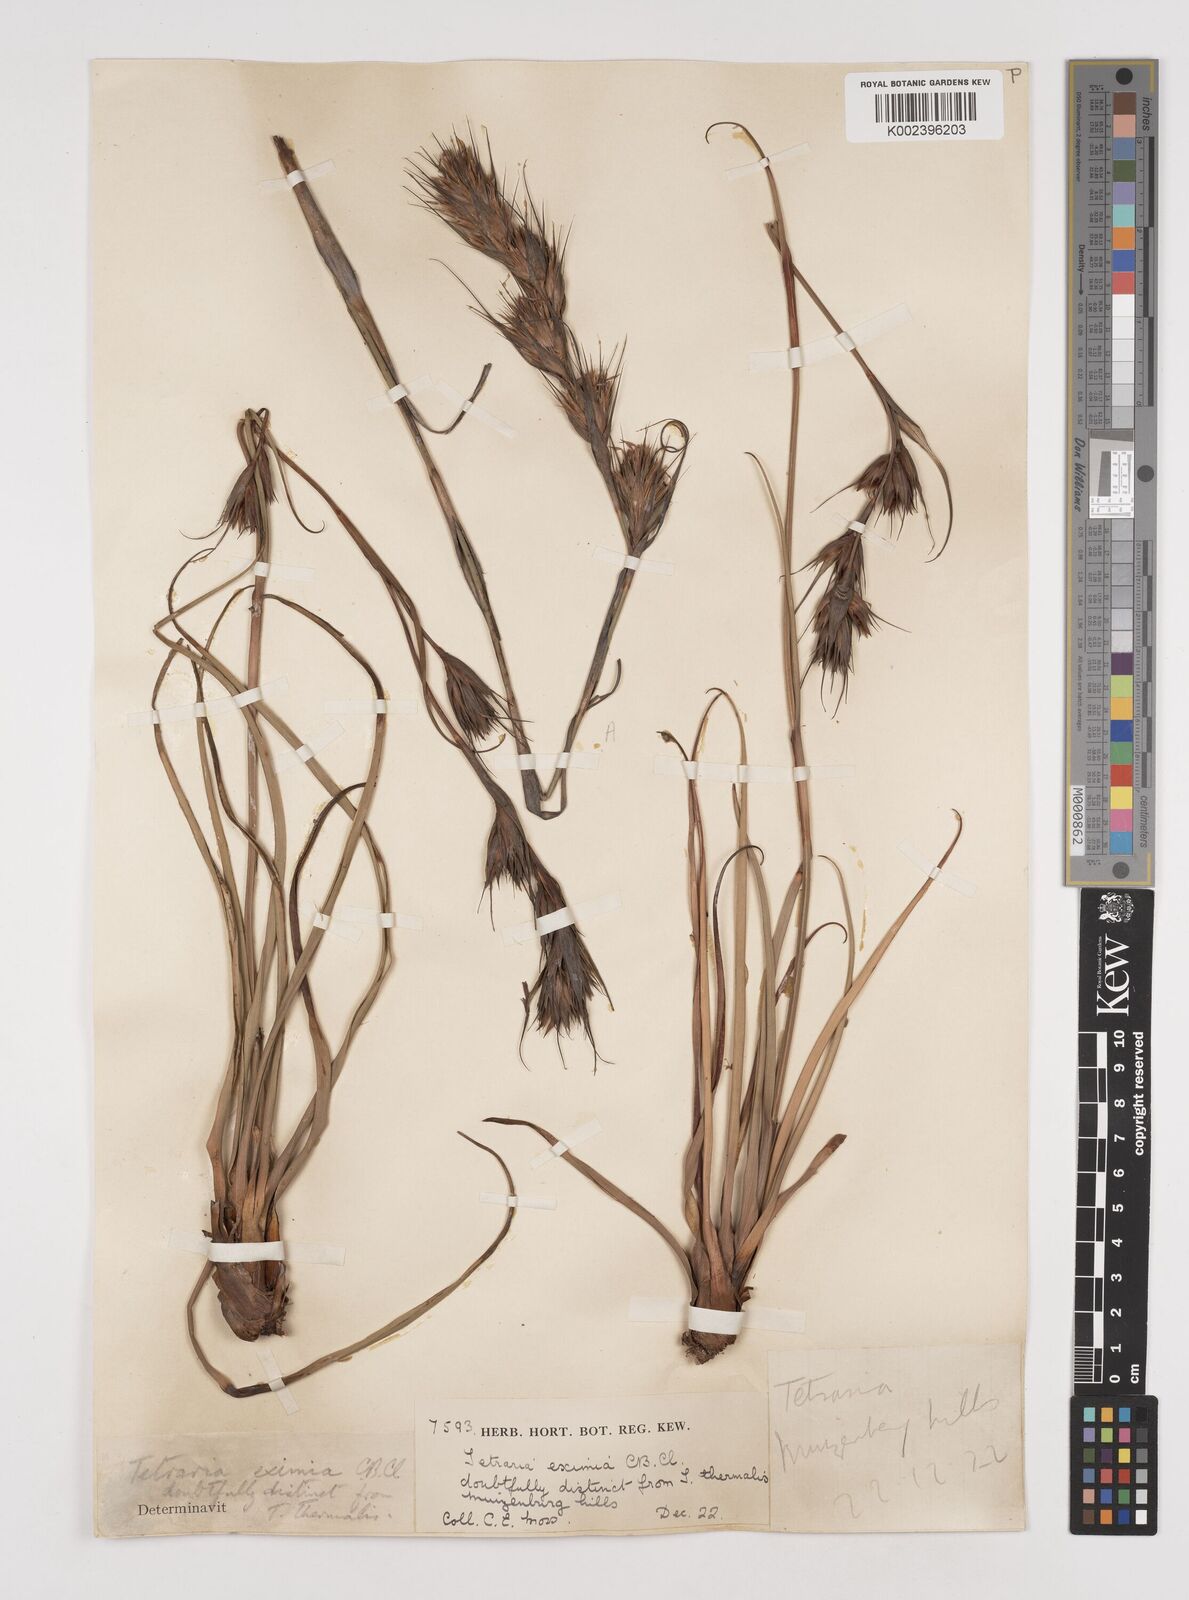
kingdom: Plantae
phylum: Tracheophyta
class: Liliopsida
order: Poales
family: Cyperaceae
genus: Tetraria
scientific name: Tetraria eximia
